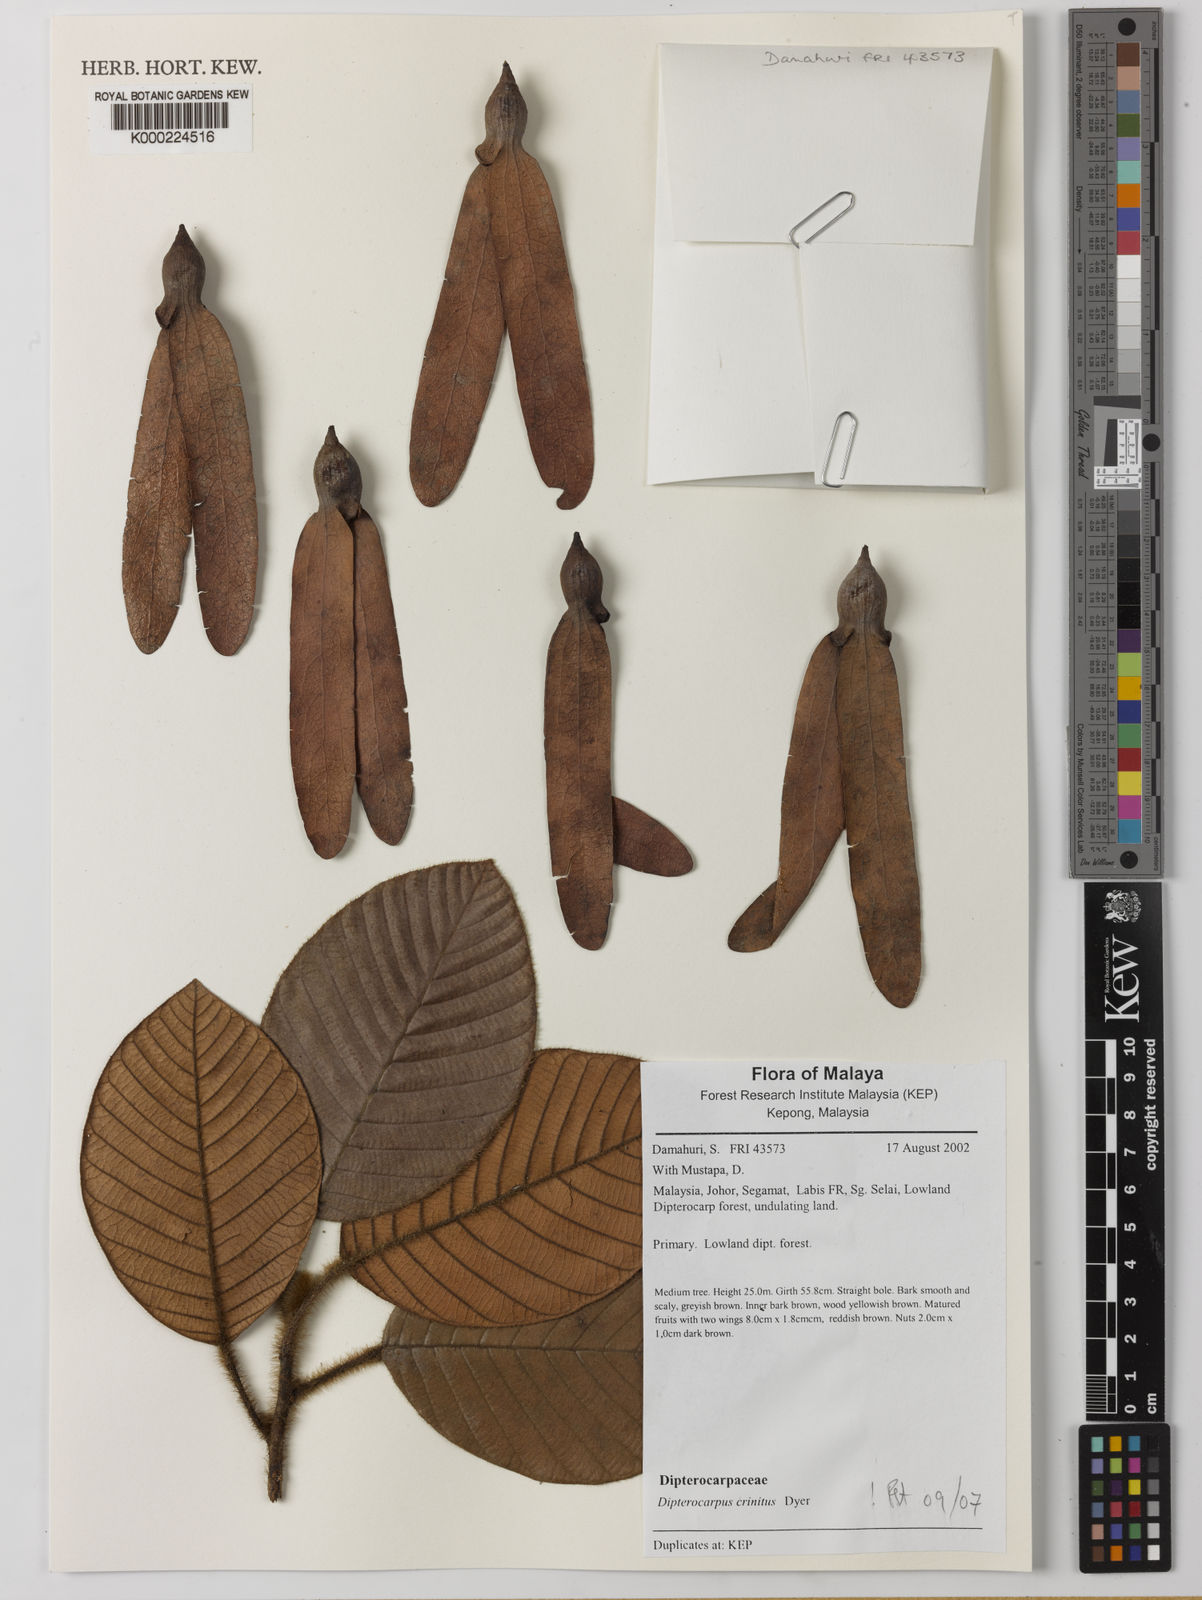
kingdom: Plantae
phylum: Tracheophyta
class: Magnoliopsida
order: Malvales
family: Dipterocarpaceae
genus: Dipterocarpus
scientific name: Dipterocarpus crinitus
